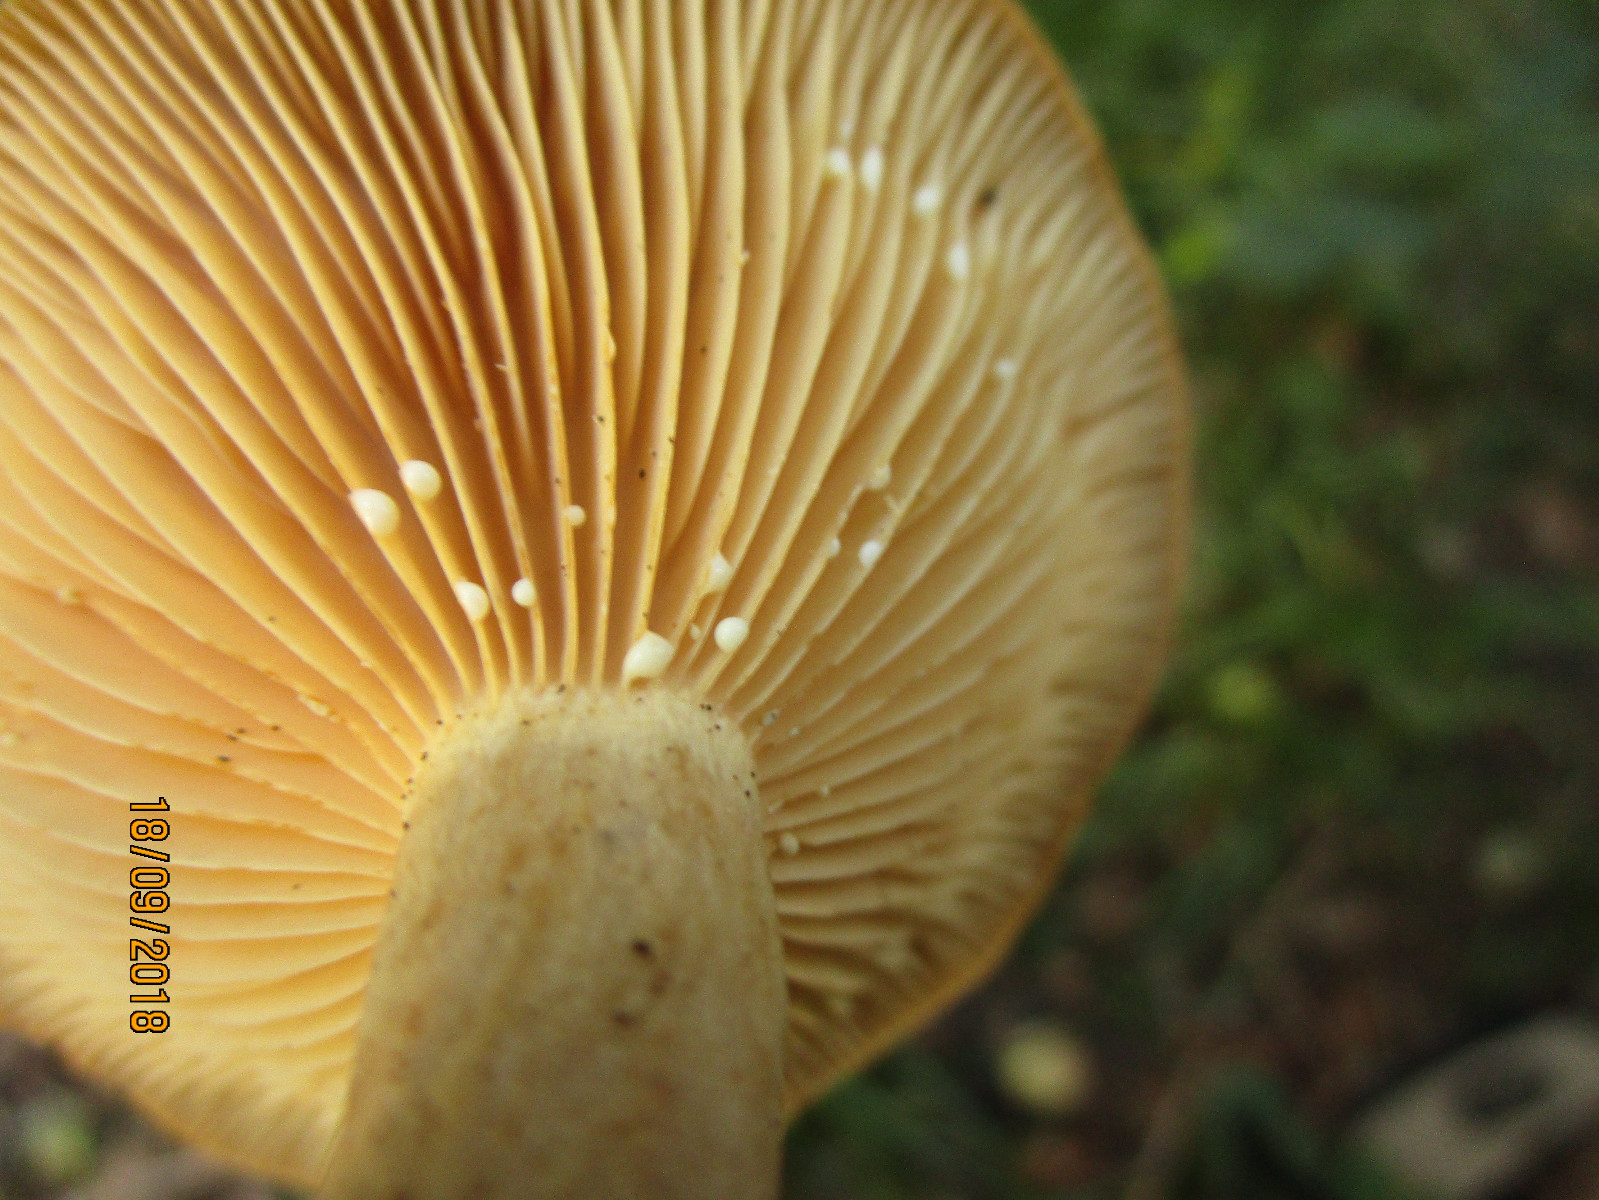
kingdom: Fungi
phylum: Basidiomycota
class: Agaricomycetes
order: Russulales
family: Russulaceae
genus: Lactarius
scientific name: Lactarius pyrogalus
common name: hassel-mælkehat
